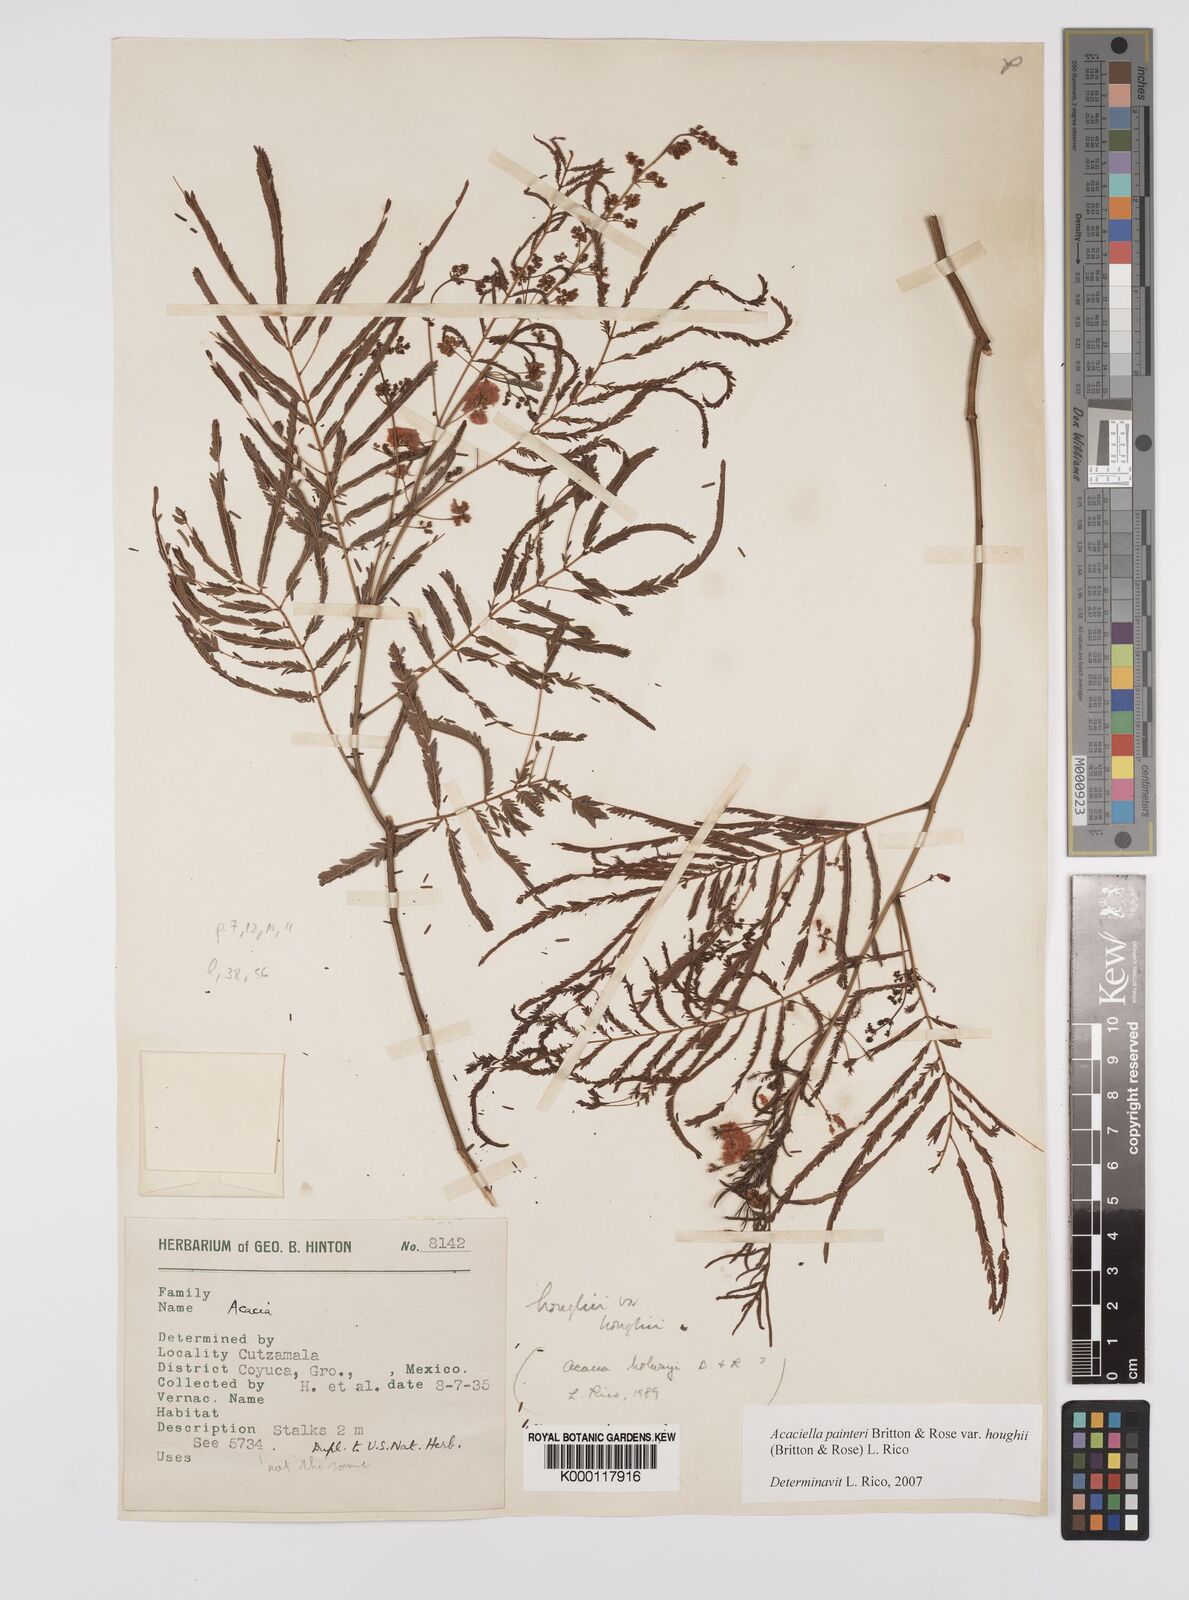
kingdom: Plantae
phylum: Tracheophyta
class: Magnoliopsida
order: Fabales
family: Fabaceae
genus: Acaciella
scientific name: Acaciella painteri
